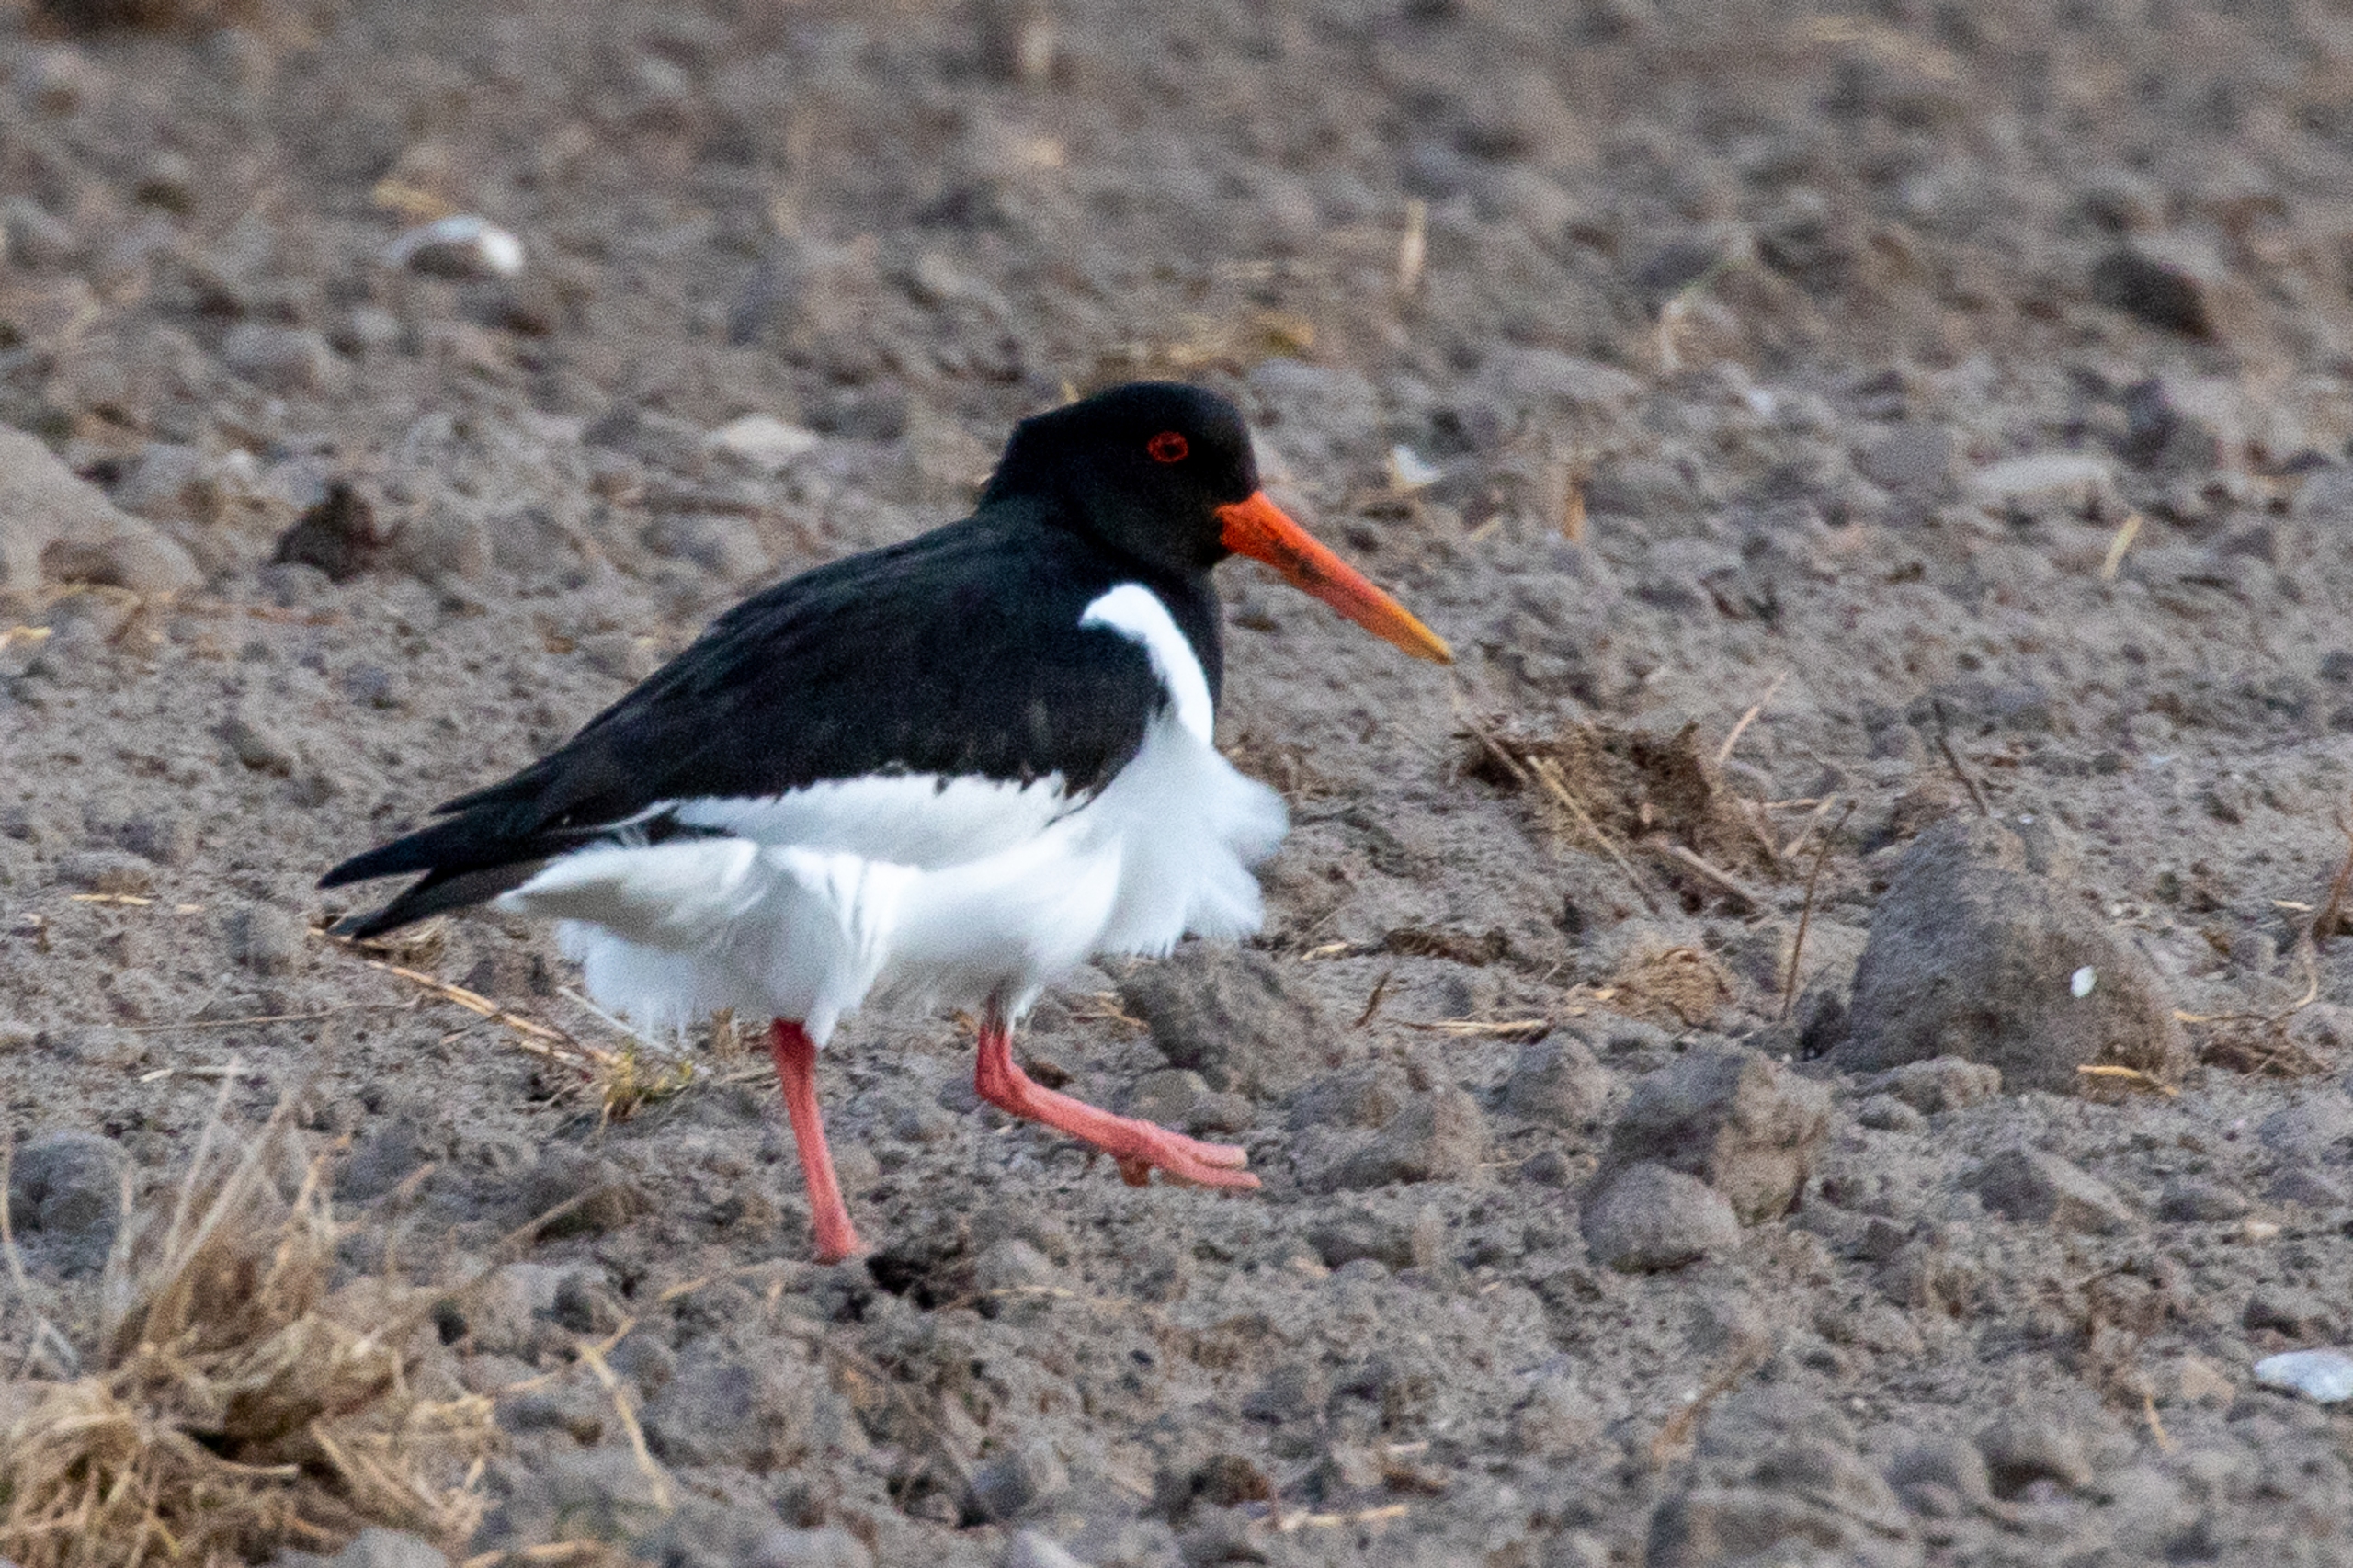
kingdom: Animalia
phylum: Chordata
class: Aves
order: Charadriiformes
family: Haematopodidae
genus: Haematopus
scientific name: Haematopus ostralegus
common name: Strandskade
